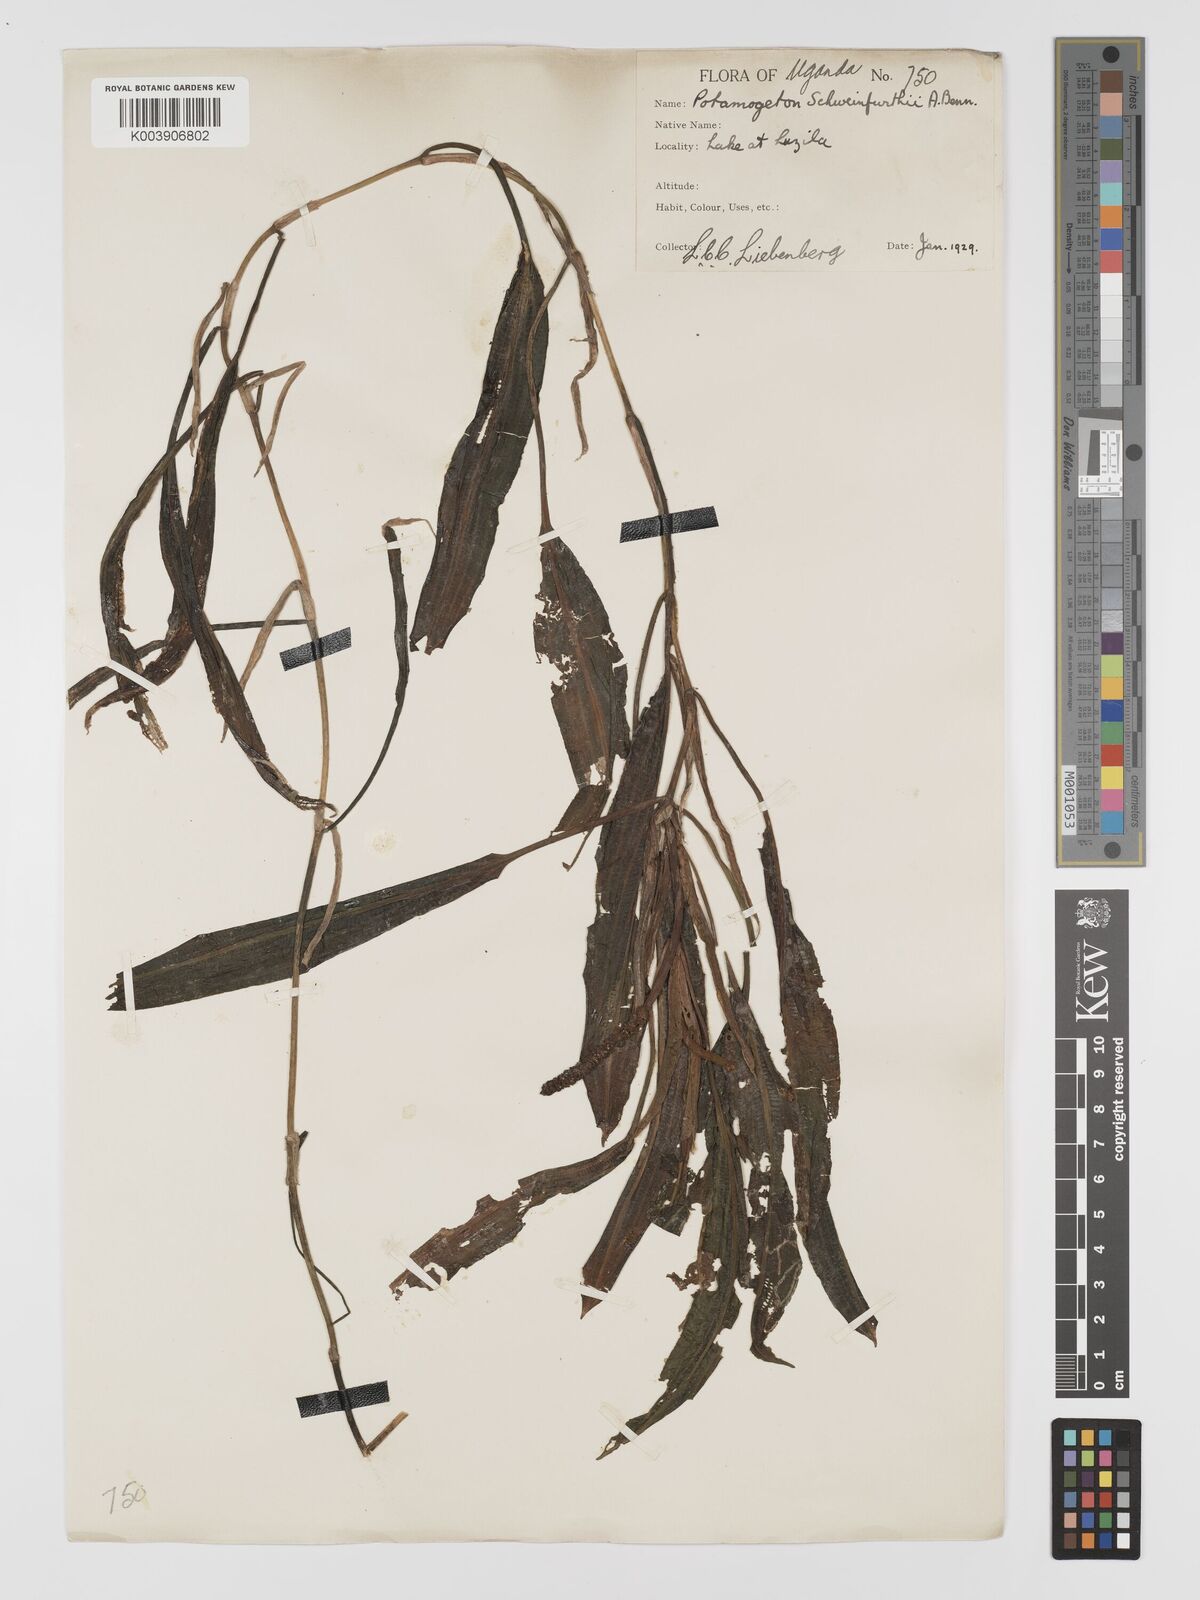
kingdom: Plantae
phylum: Tracheophyta
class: Liliopsida
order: Alismatales
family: Potamogetonaceae
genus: Potamogeton
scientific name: Potamogeton schweinfurthii
